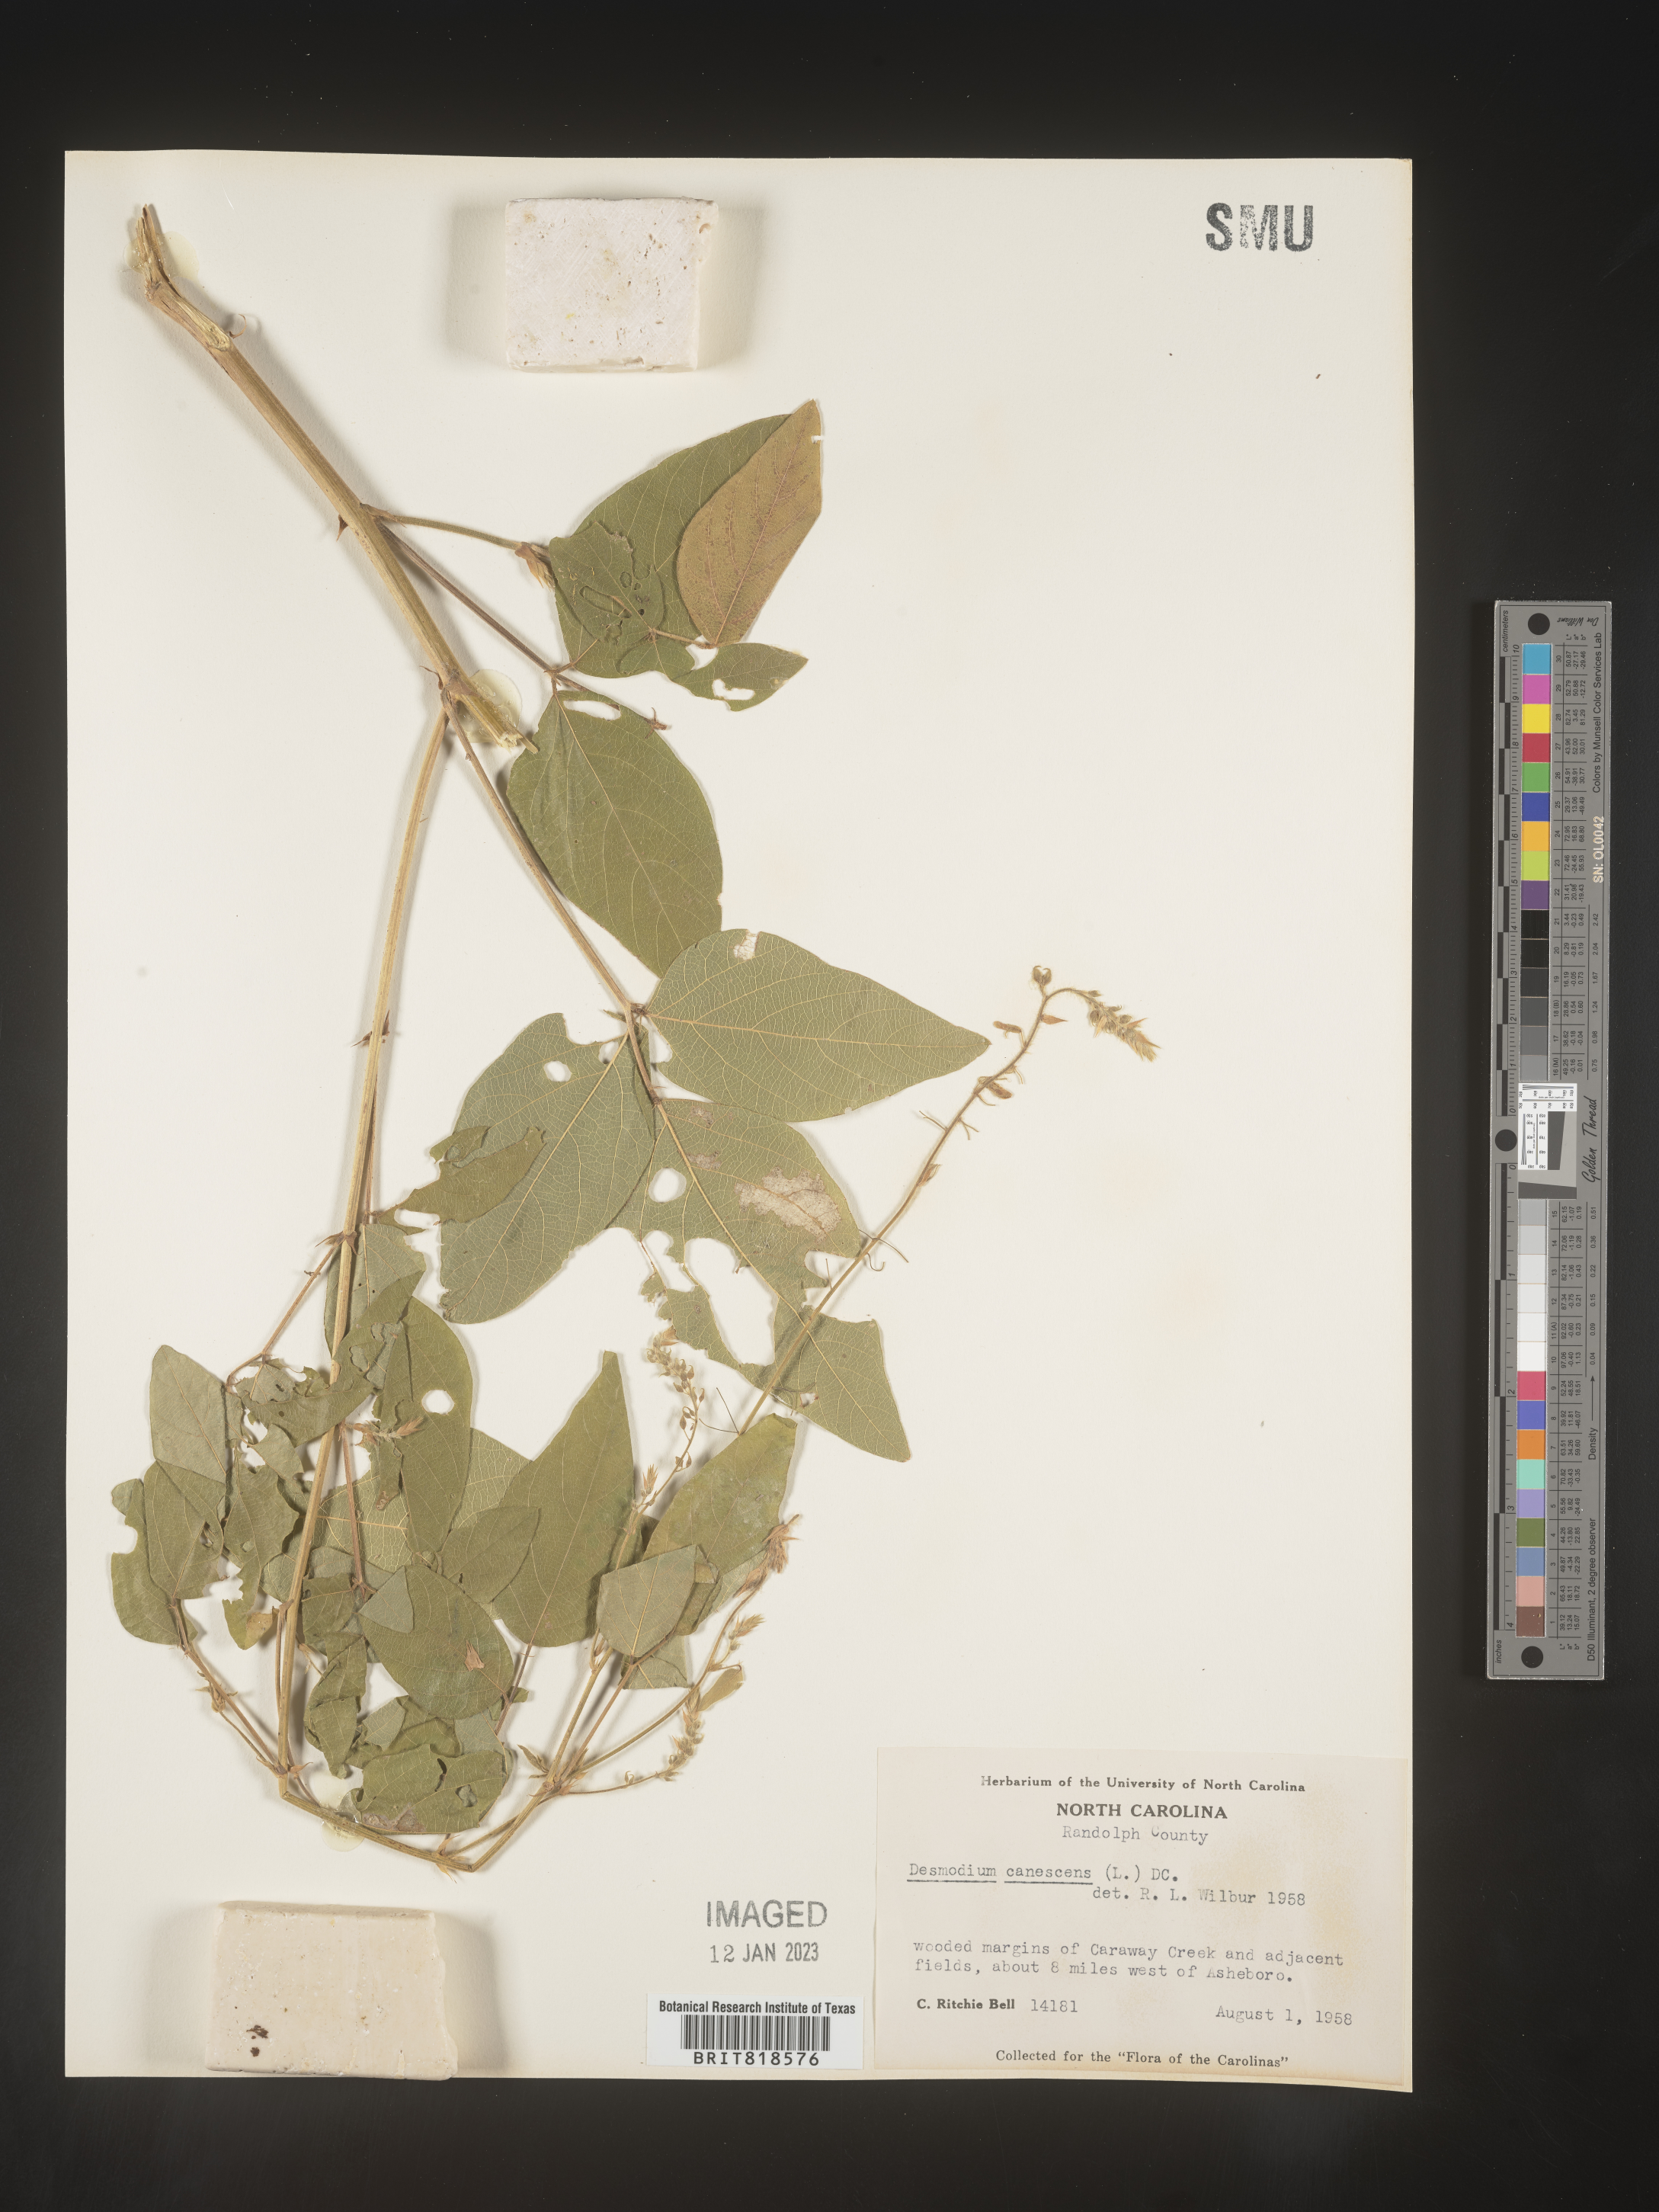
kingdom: Plantae
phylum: Tracheophyta
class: Magnoliopsida
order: Fabales
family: Fabaceae
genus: Desmodium
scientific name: Desmodium canescens
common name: Hoary tick-clover
